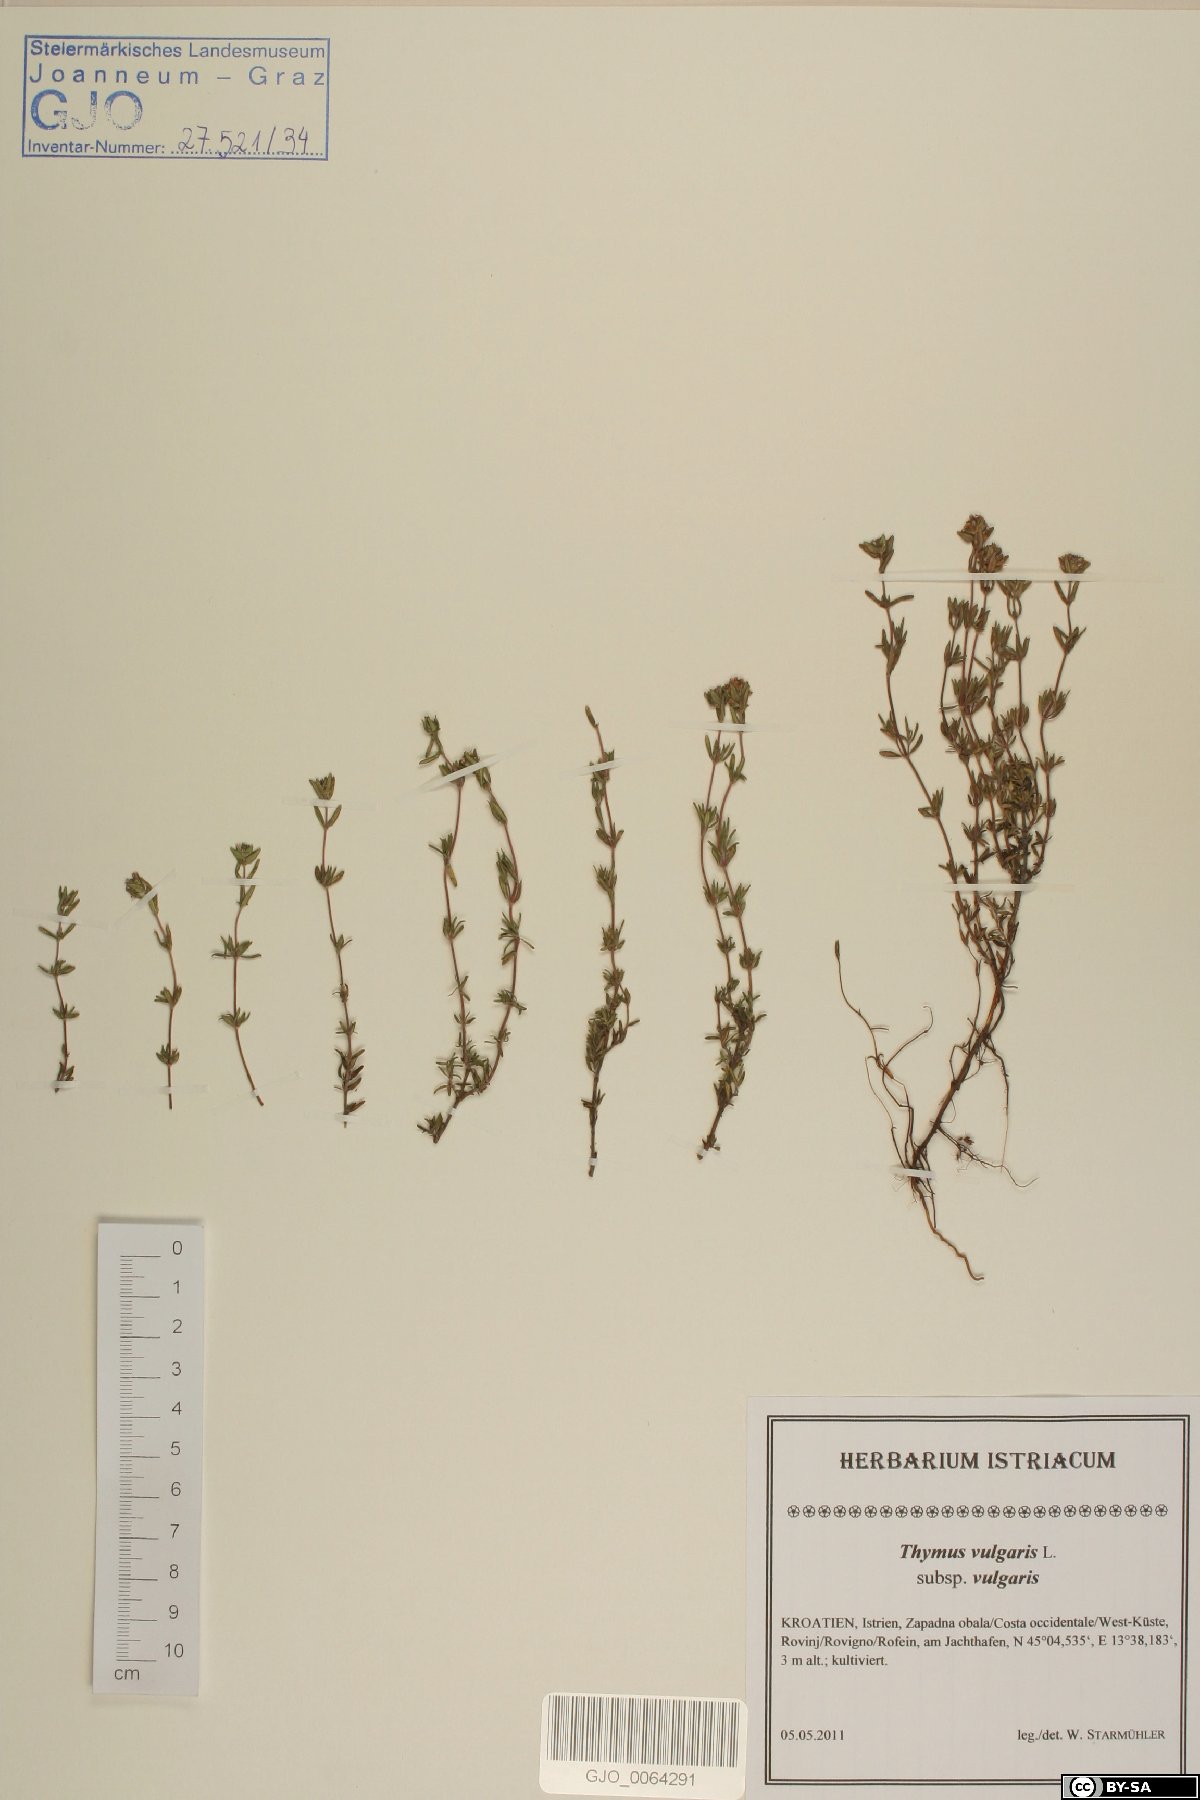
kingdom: Plantae
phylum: Tracheophyta
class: Magnoliopsida
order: Lamiales
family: Lamiaceae
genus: Thymus
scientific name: Thymus vulgaris
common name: Garden thyme
